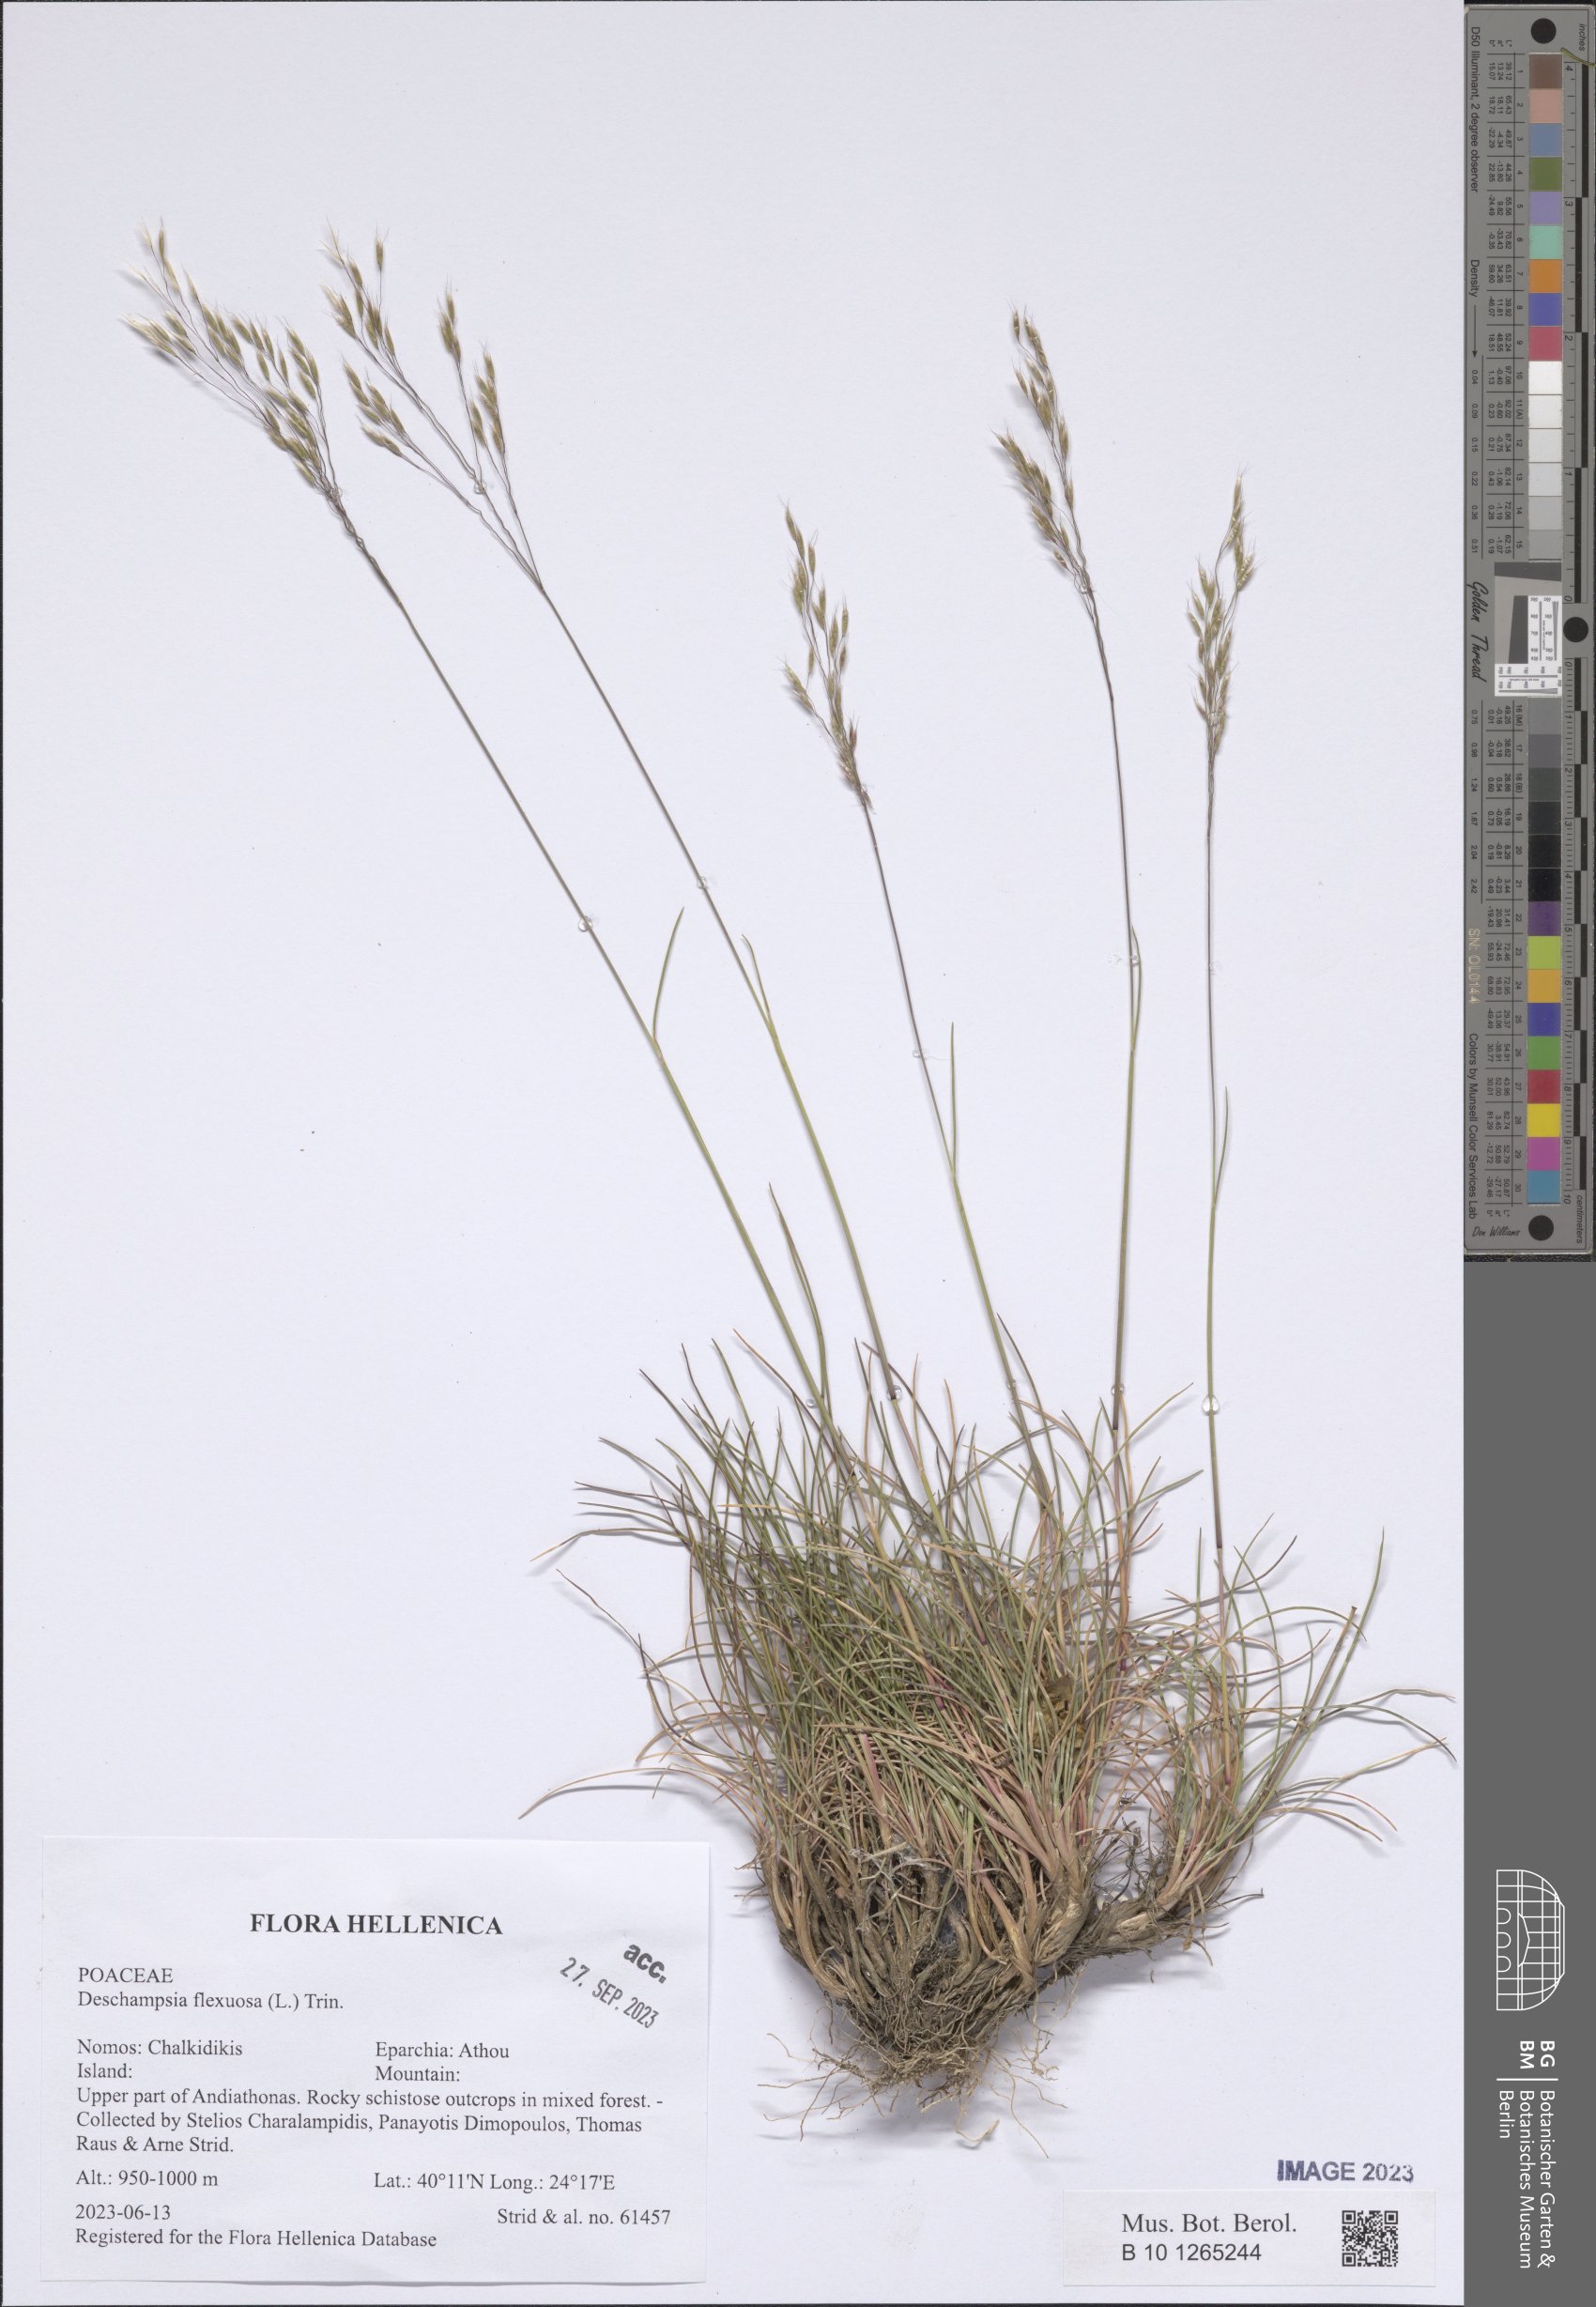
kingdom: Plantae
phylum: Tracheophyta
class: Liliopsida
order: Poales
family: Poaceae
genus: Avenella
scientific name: Avenella flexuosa
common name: Wavy hairgrass
